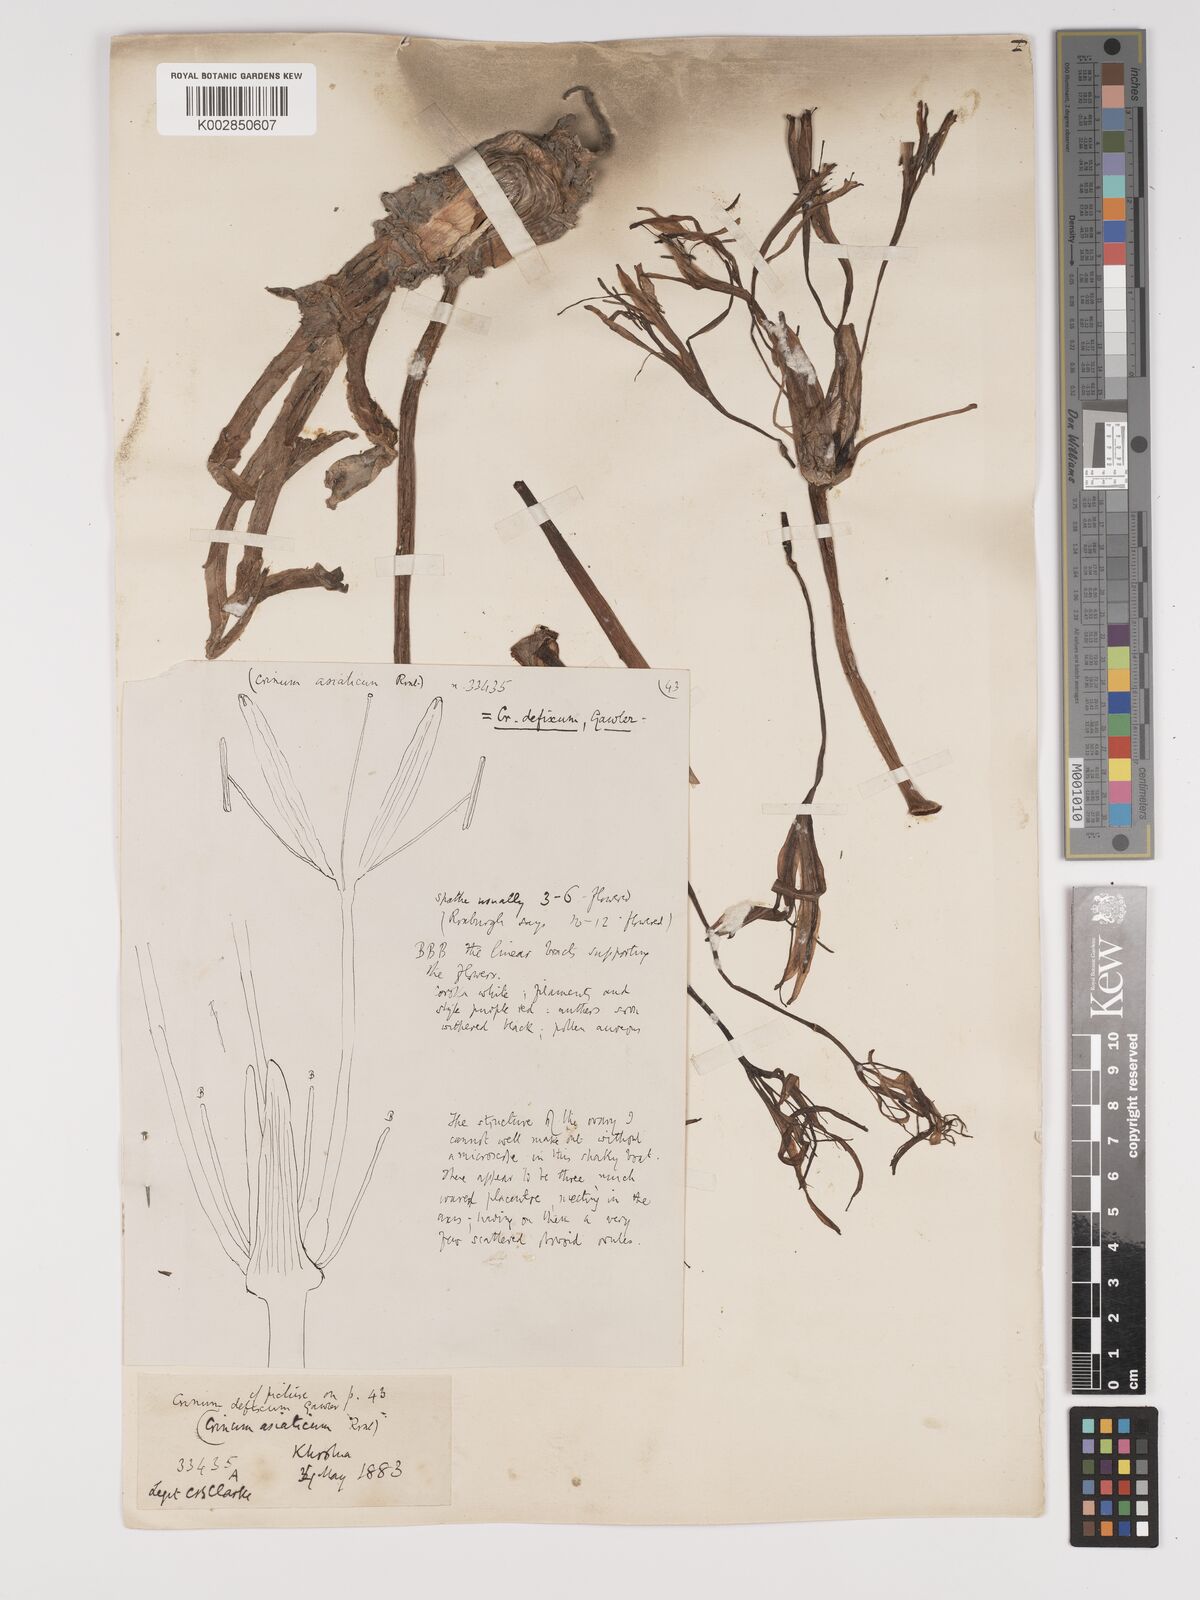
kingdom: Plantae
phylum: Tracheophyta
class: Liliopsida
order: Asparagales
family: Amaryllidaceae
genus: Crinum
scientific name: Crinum defixum
